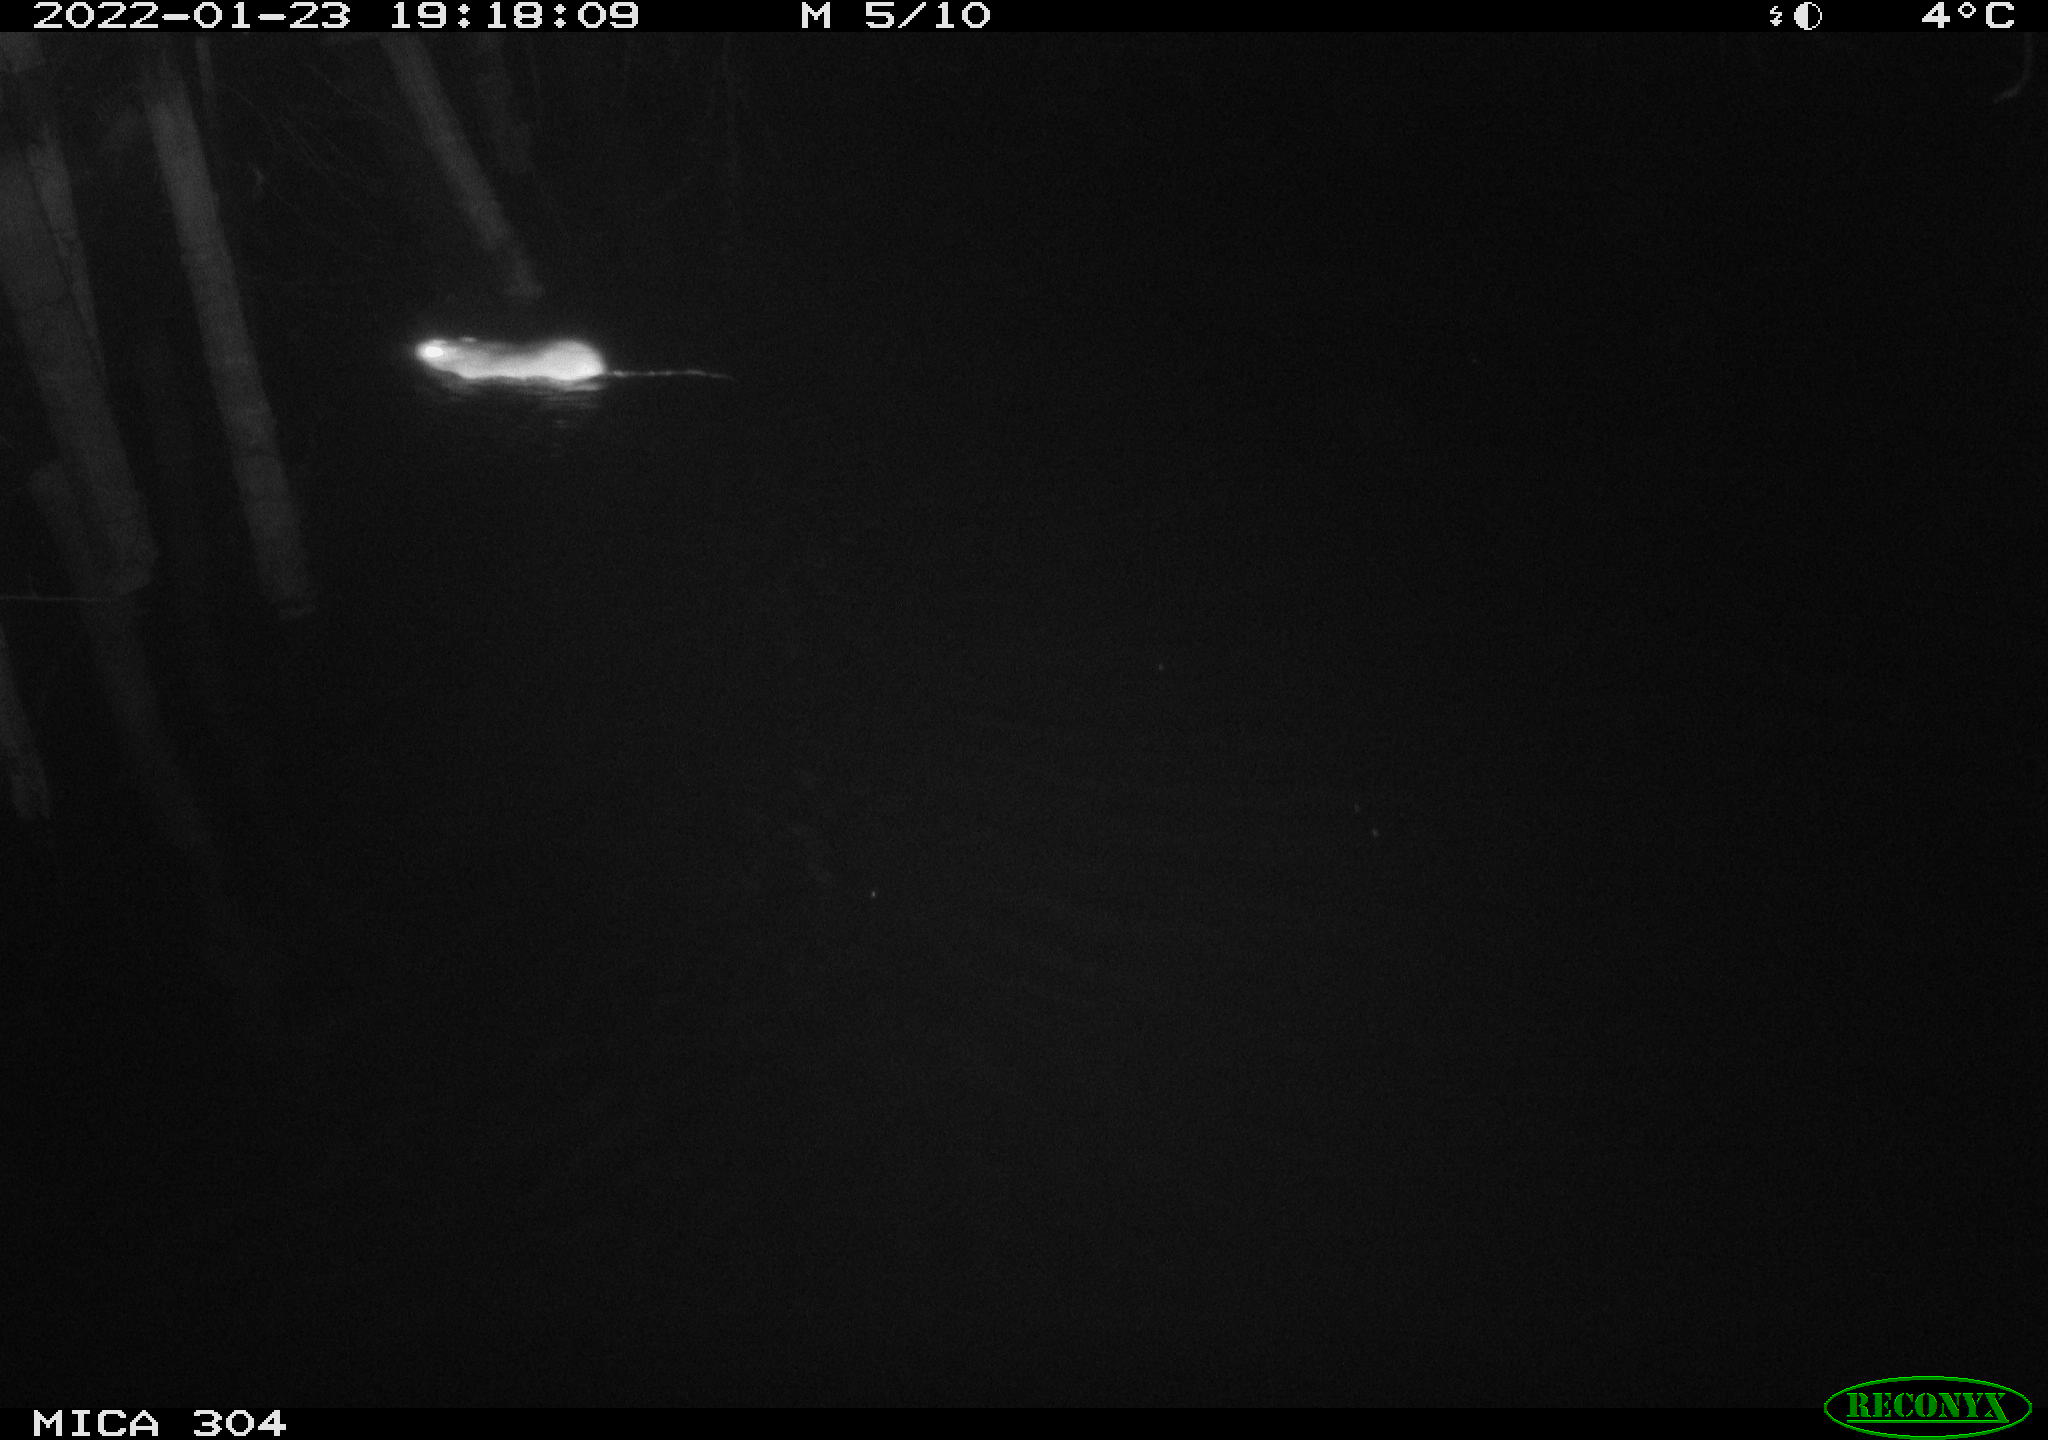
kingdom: Animalia
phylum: Chordata
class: Mammalia
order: Rodentia
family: Muridae
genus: Rattus
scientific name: Rattus norvegicus
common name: Brown rat
